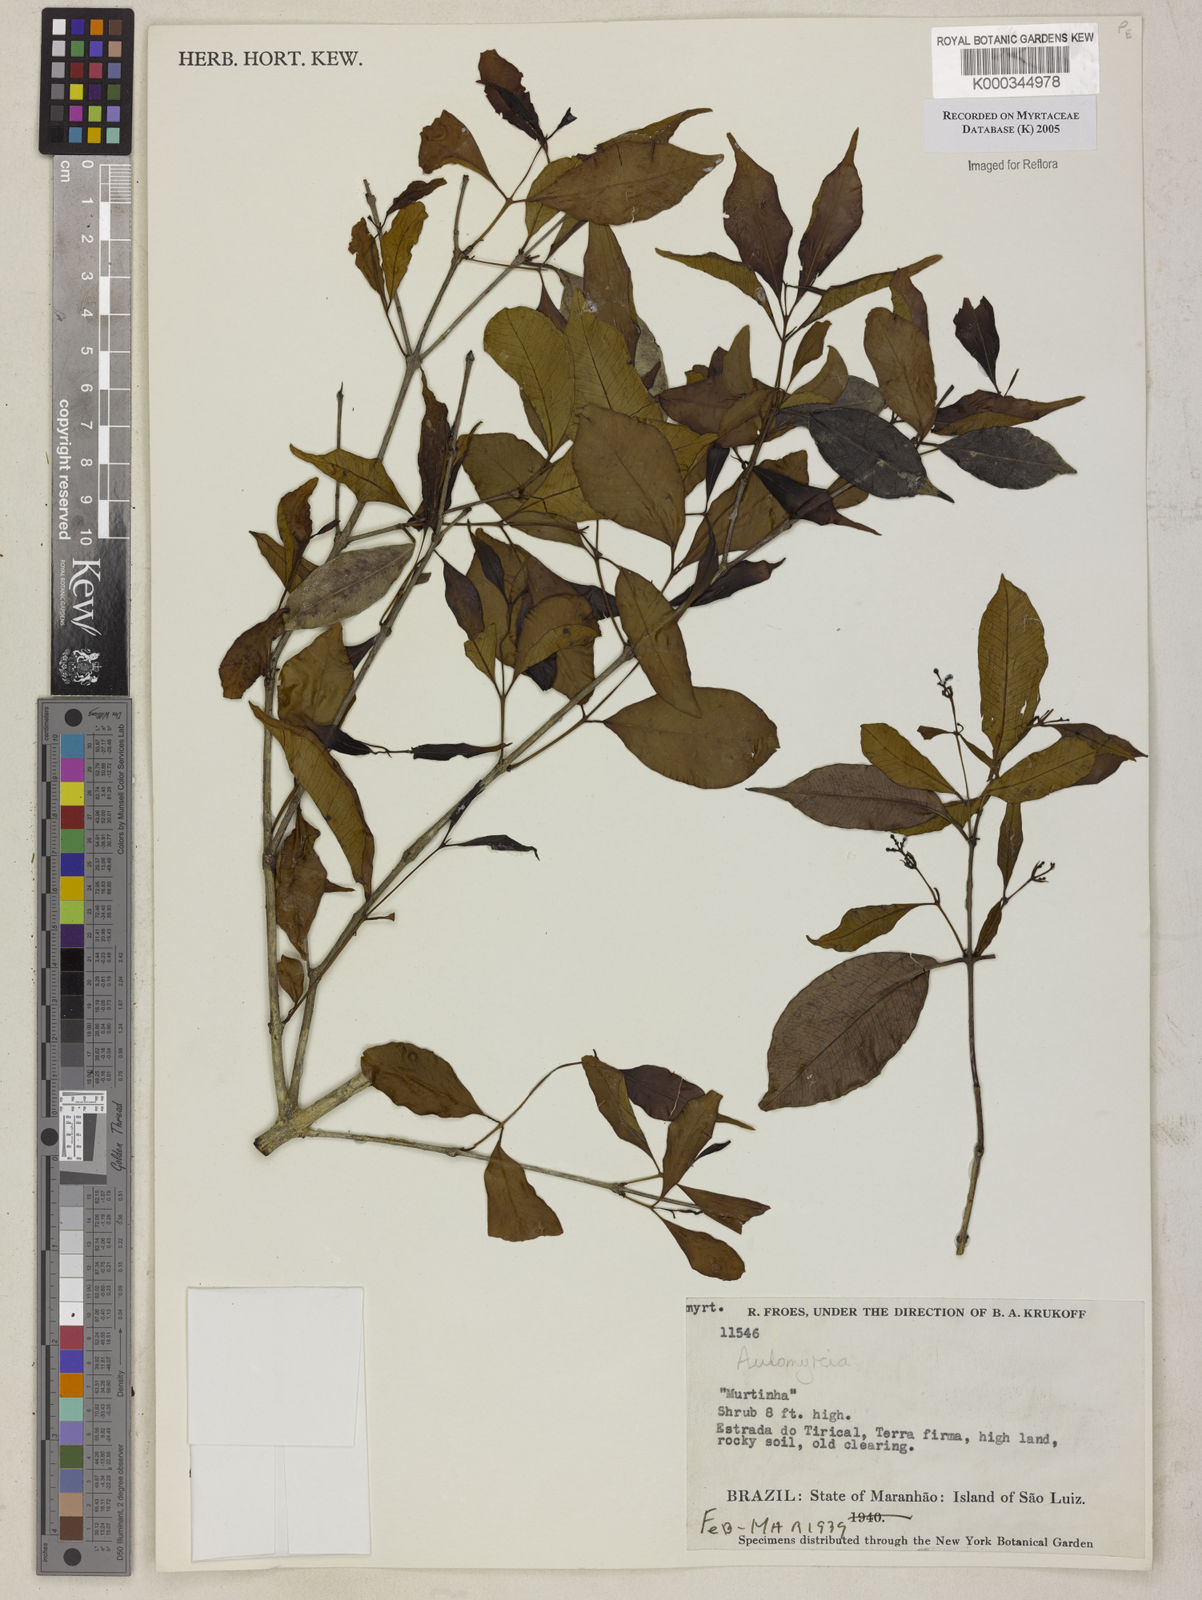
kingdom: Plantae
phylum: Tracheophyta
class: Magnoliopsida
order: Myrtales
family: Myrtaceae
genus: Myrcia
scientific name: Myrcia
